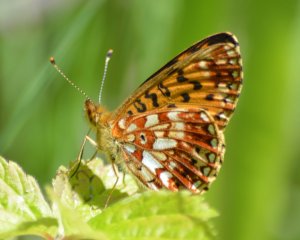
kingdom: Animalia
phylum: Arthropoda
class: Insecta
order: Lepidoptera
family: Nymphalidae
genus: Boloria
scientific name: Boloria selene
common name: Silver-bordered Fritillary
